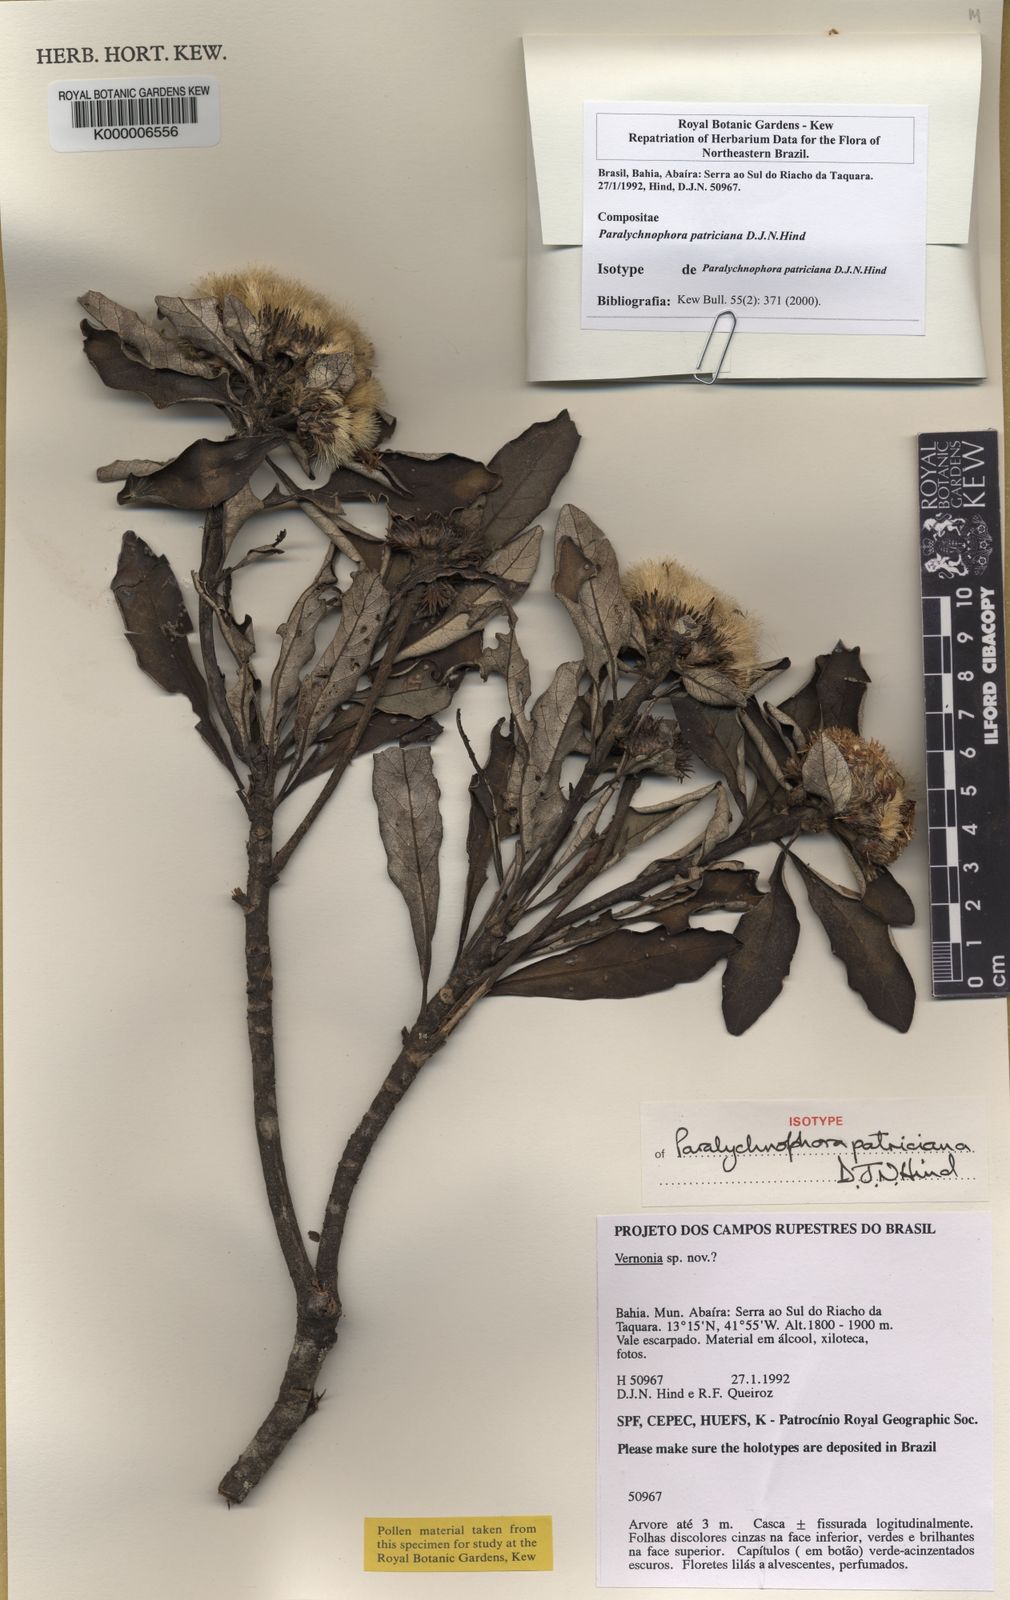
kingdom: Plantae
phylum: Tracheophyta
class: Magnoliopsida
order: Asterales
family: Asteraceae
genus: Paralychnophora
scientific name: Paralychnophora patriciana
